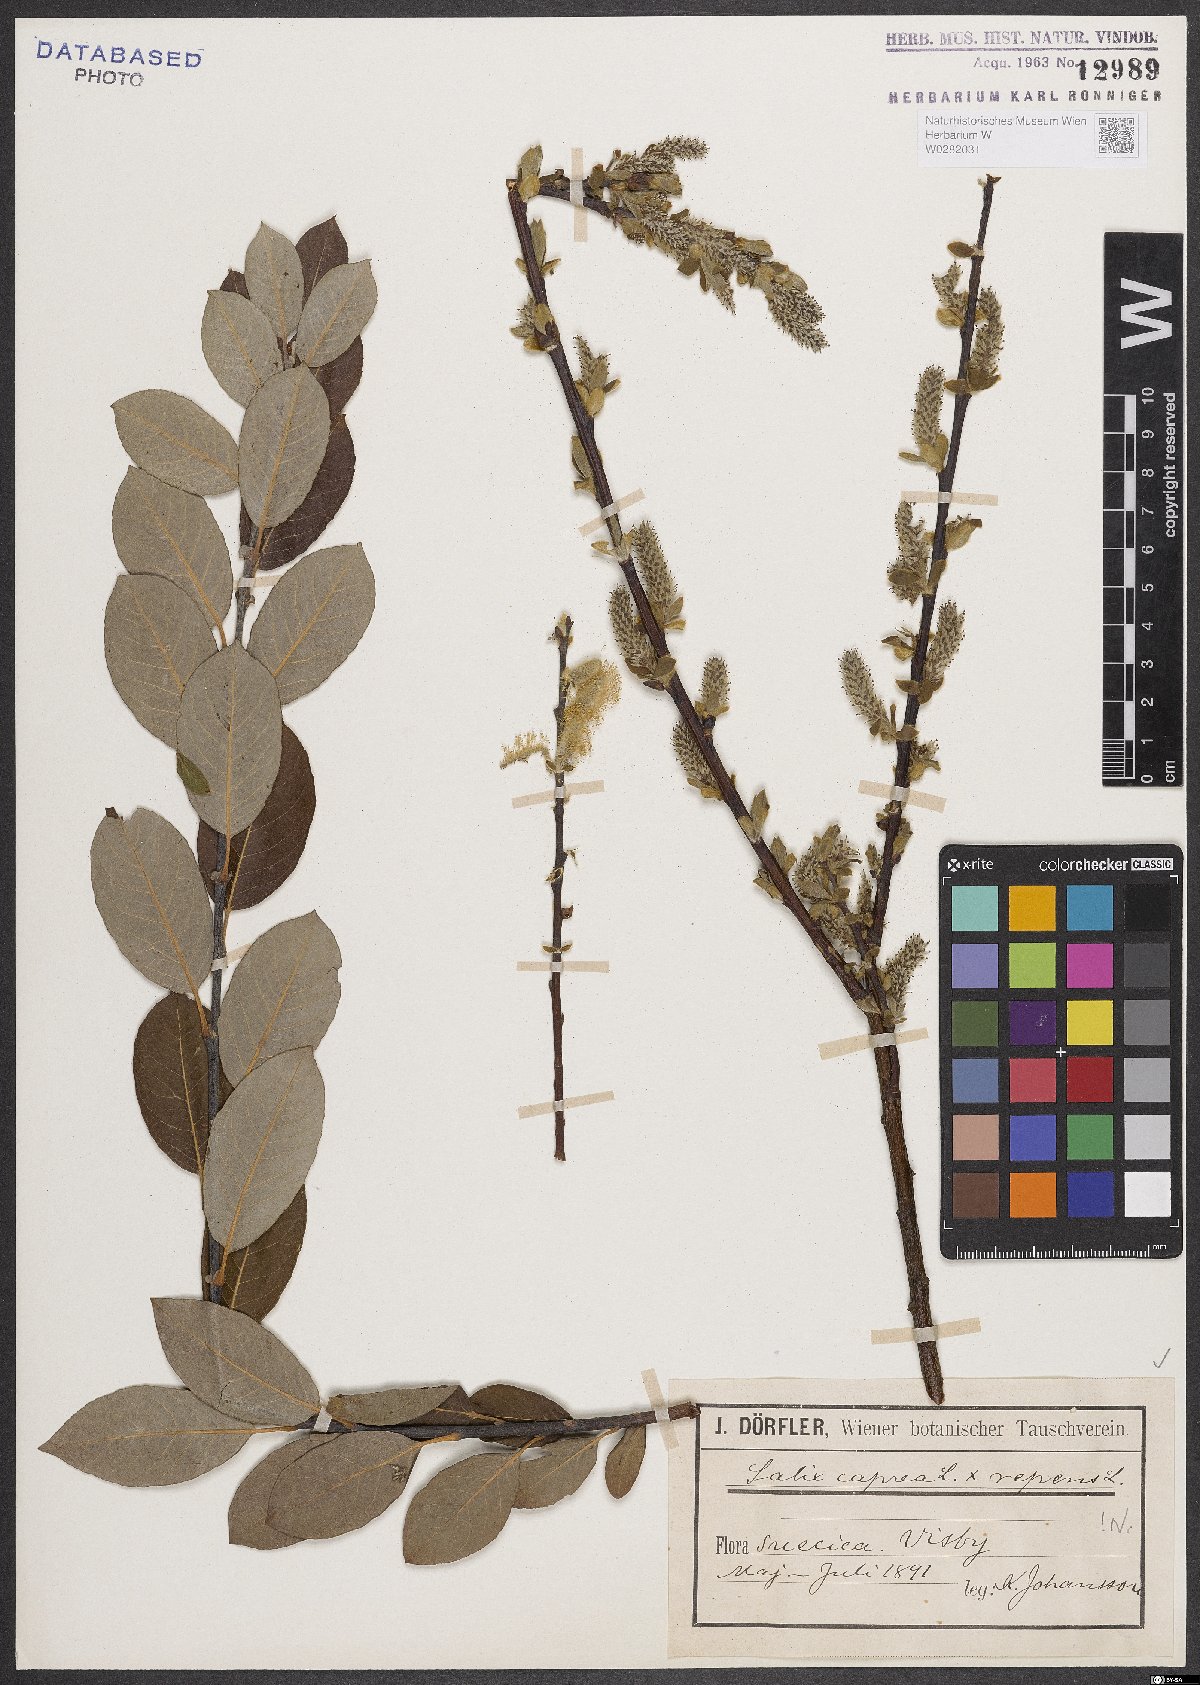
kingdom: Plantae
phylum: Tracheophyta
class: Magnoliopsida
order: Malpighiales
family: Salicaceae
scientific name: Salicaceae
